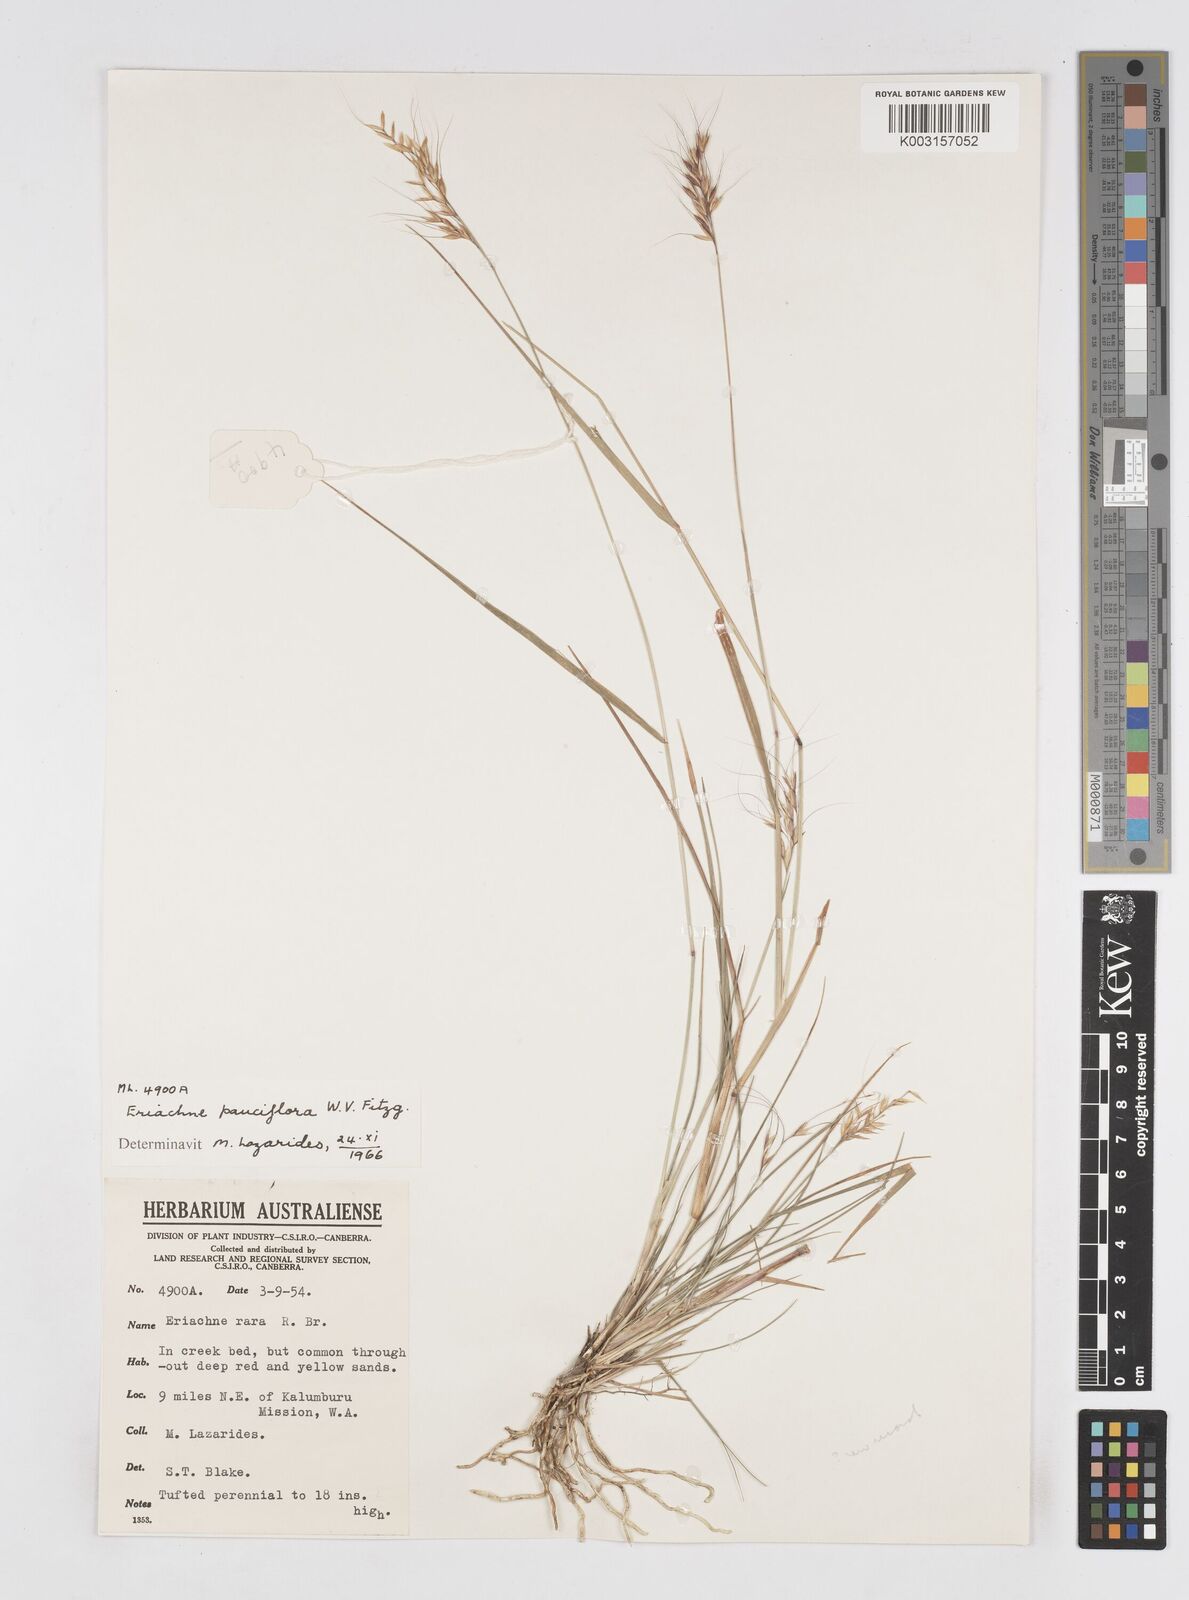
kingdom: Plantae
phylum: Tracheophyta
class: Liliopsida
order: Poales
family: Poaceae
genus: Eriachne
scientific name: Eriachne pauciflora
